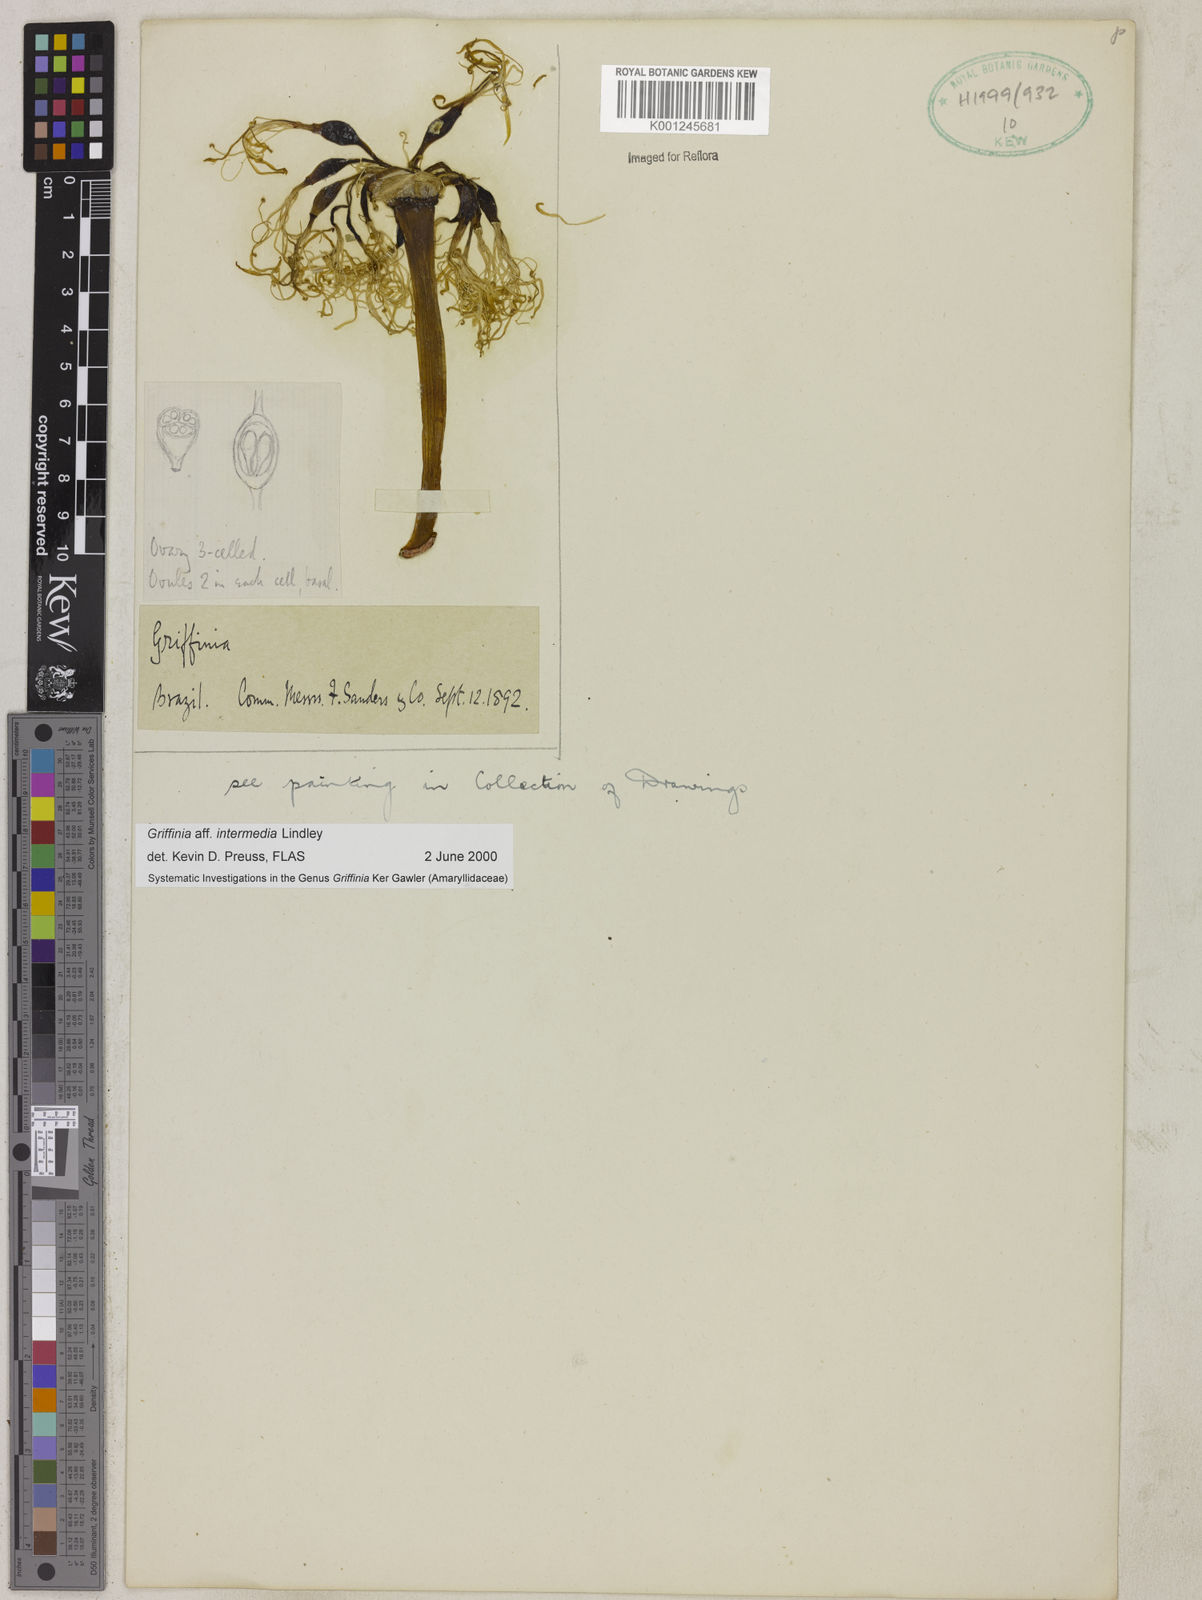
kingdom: Plantae
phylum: Tracheophyta
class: Liliopsida
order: Asparagales
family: Amaryllidaceae
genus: Griffinia
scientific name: Griffinia intermedia
